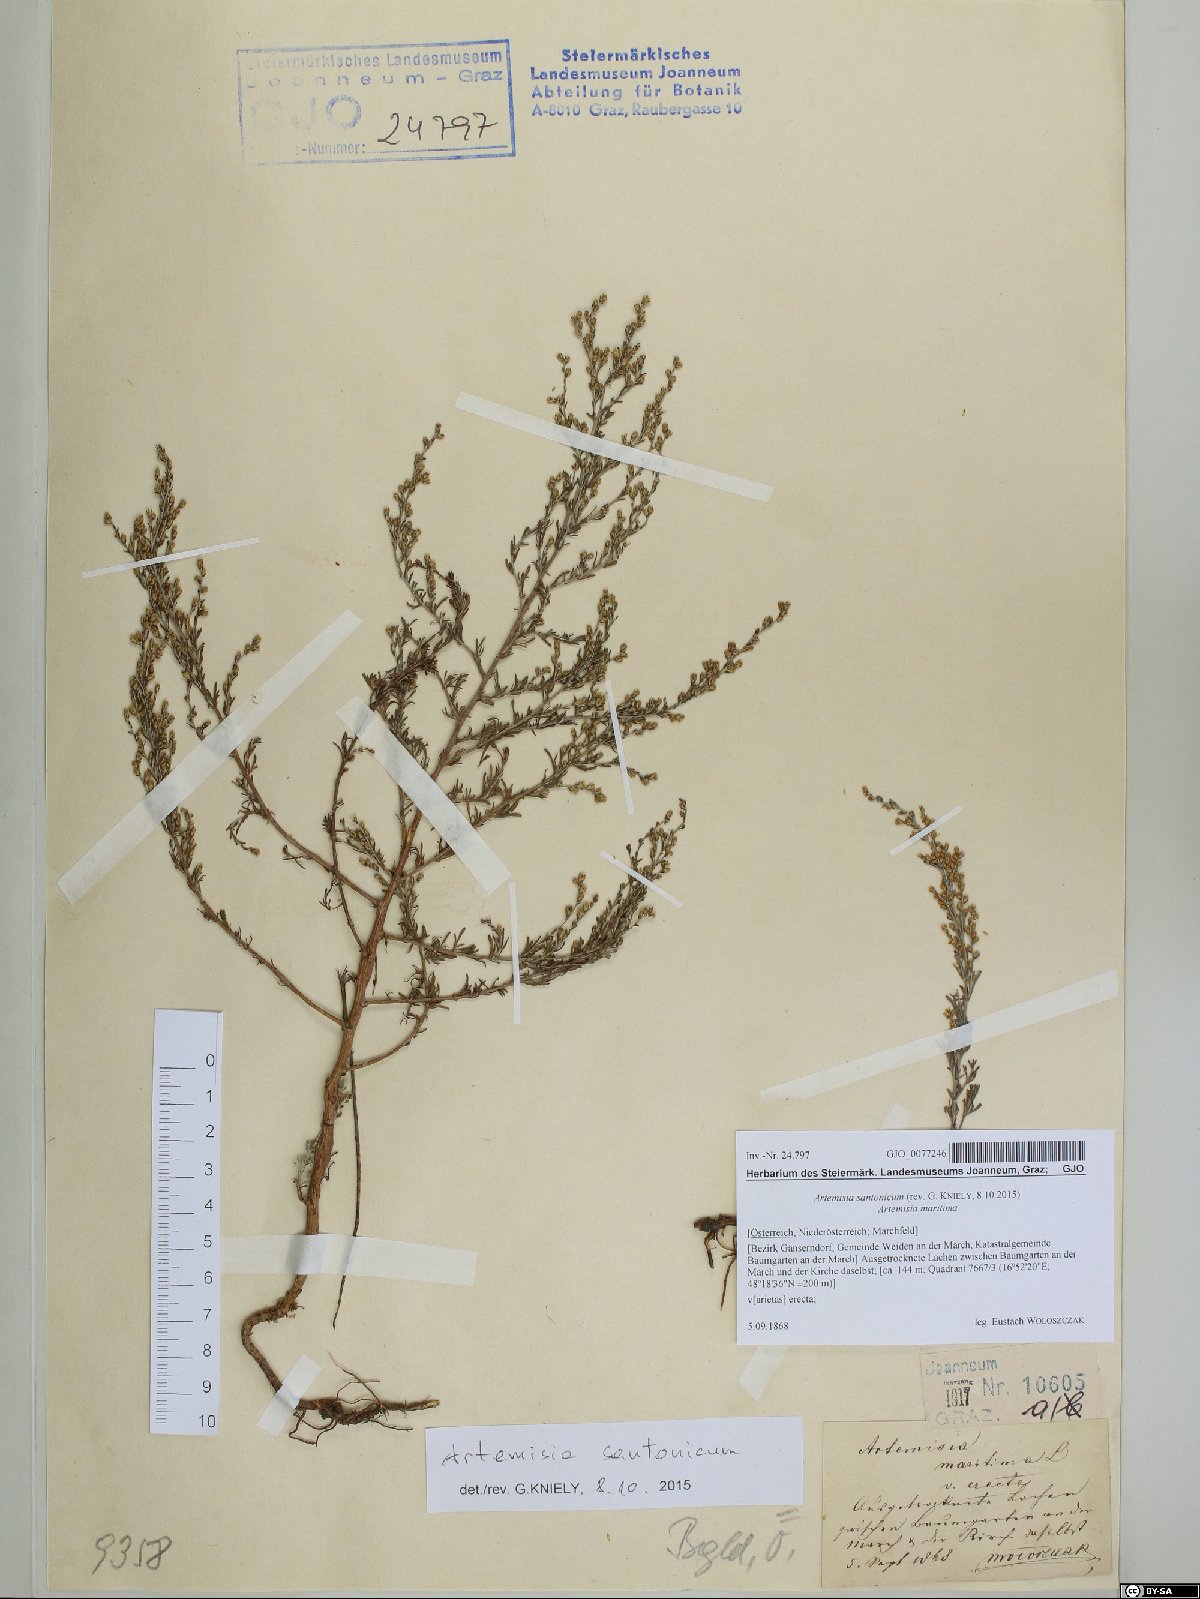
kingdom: Plantae
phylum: Tracheophyta
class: Magnoliopsida
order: Asterales
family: Asteraceae
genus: Artemisia
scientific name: Artemisia santonicum
